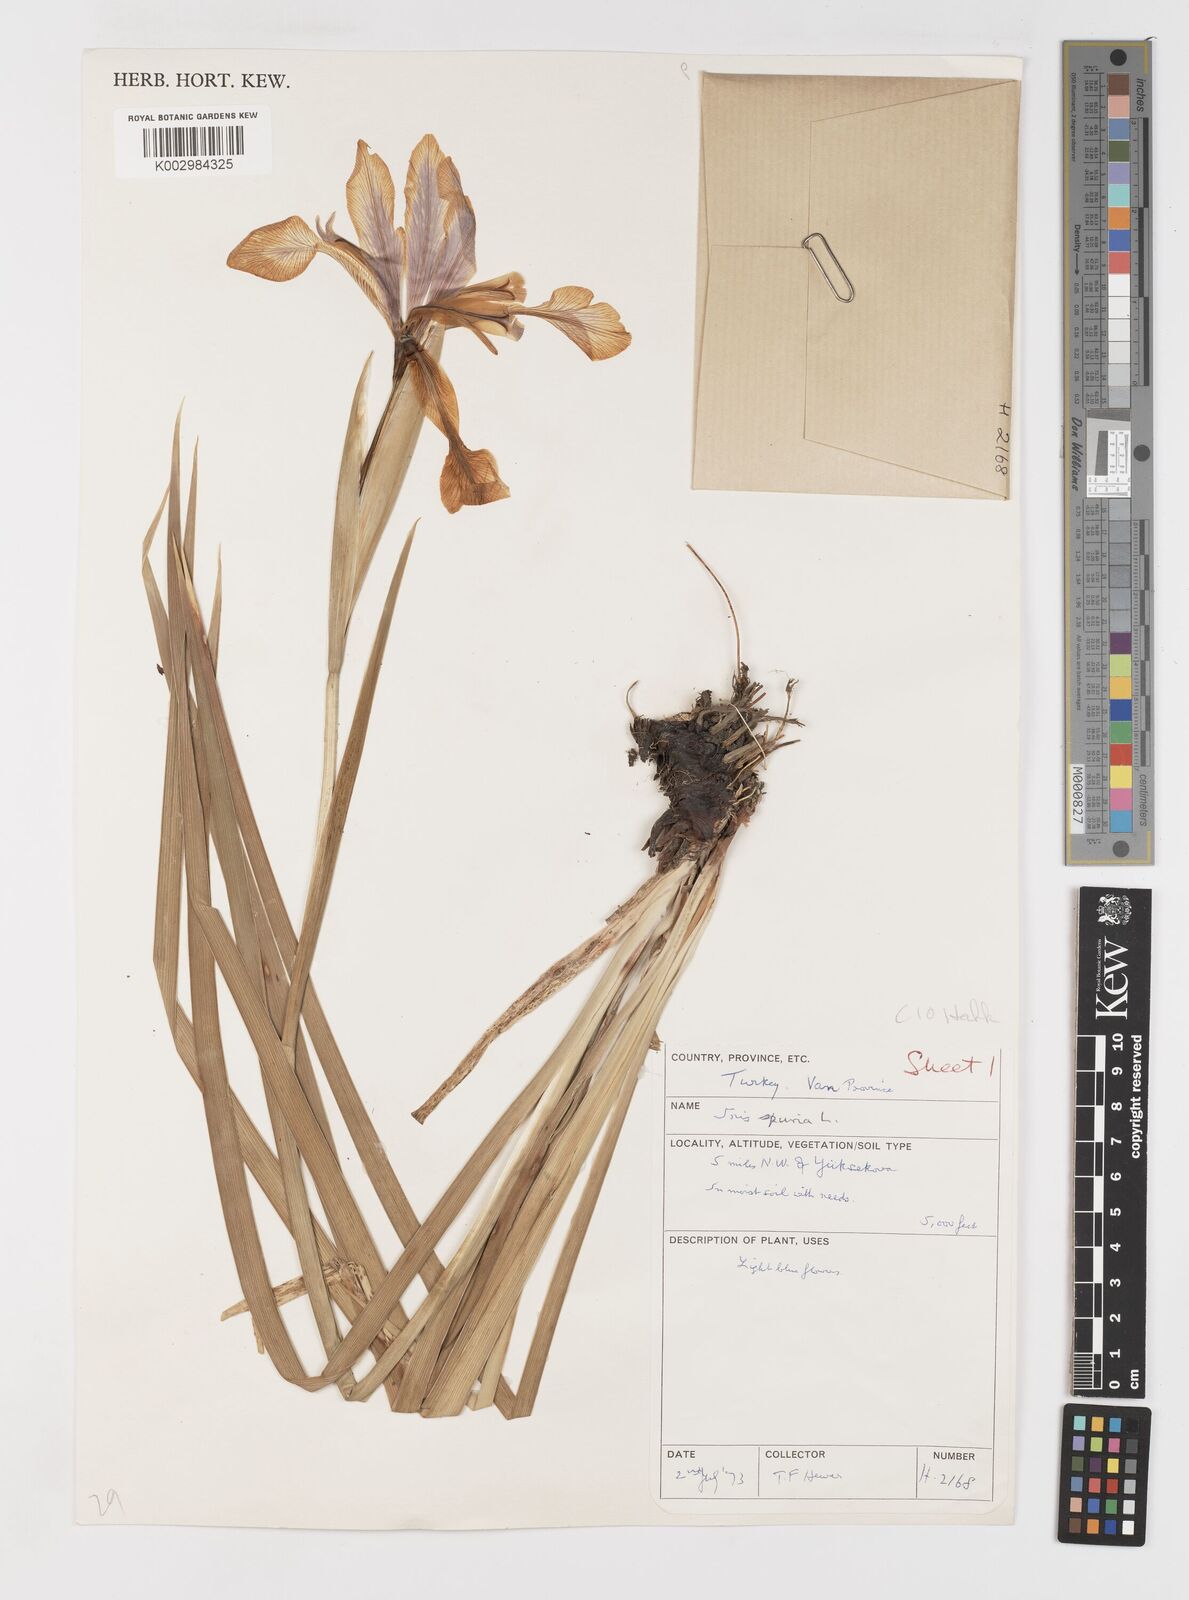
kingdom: Plantae
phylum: Tracheophyta
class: Liliopsida
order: Asparagales
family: Iridaceae
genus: Iris
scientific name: Iris spuria
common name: Blue iris
